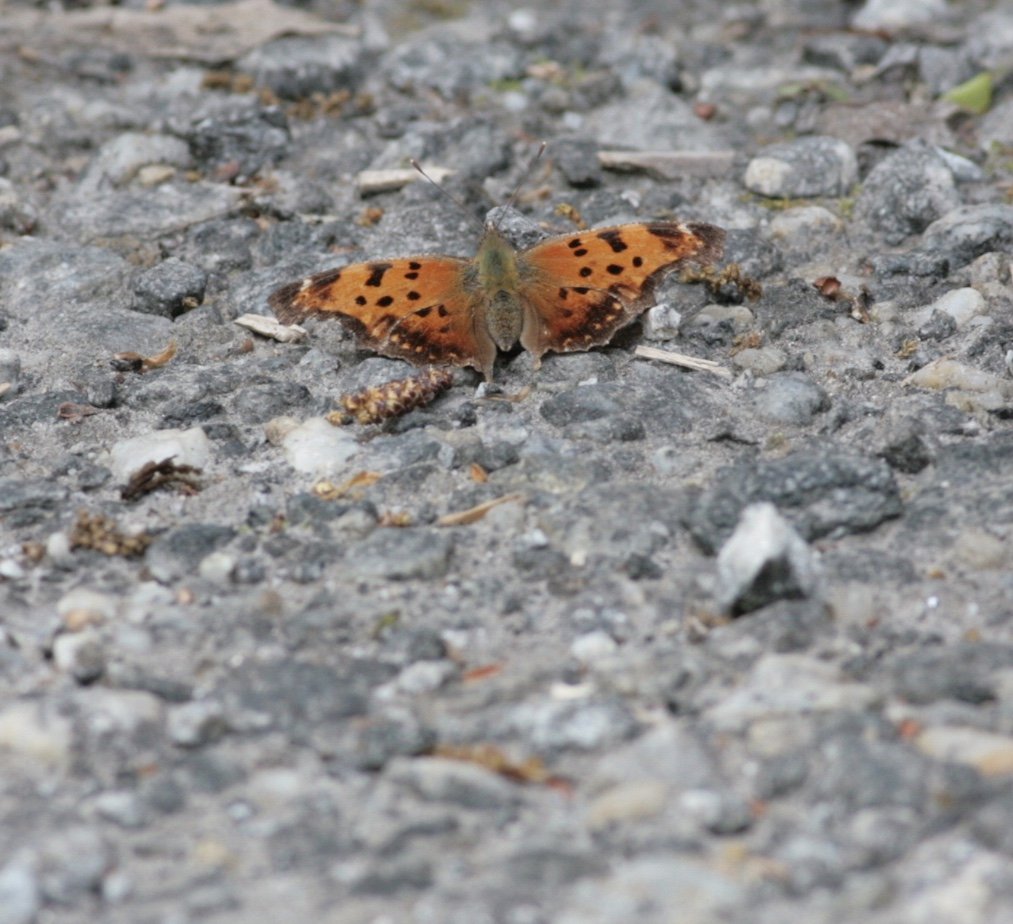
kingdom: Animalia
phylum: Arthropoda
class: Insecta
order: Lepidoptera
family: Nymphalidae
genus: Polygonia
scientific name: Polygonia comma
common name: Eastern Comma
